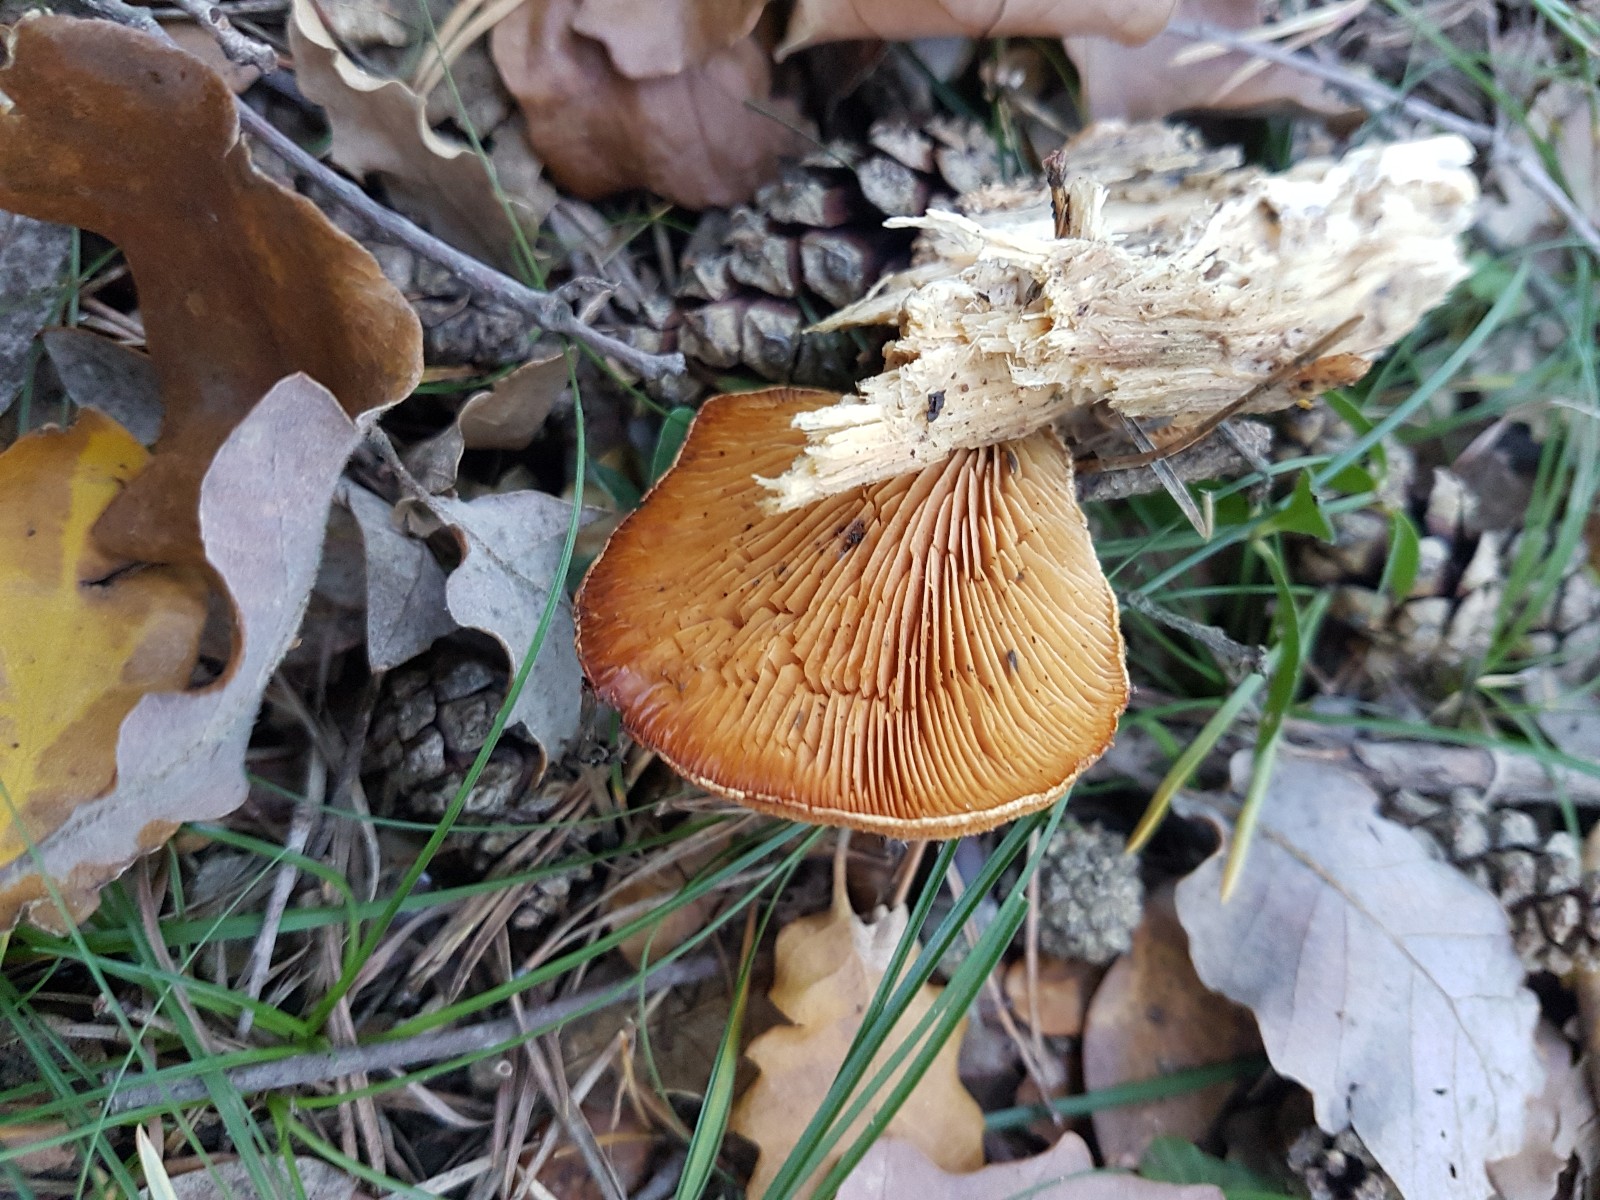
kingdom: Fungi
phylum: Basidiomycota
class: Agaricomycetes
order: Agaricales
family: Phyllotopsidaceae
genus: Phyllotopsis
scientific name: Phyllotopsis nidulans
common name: okkerblad
